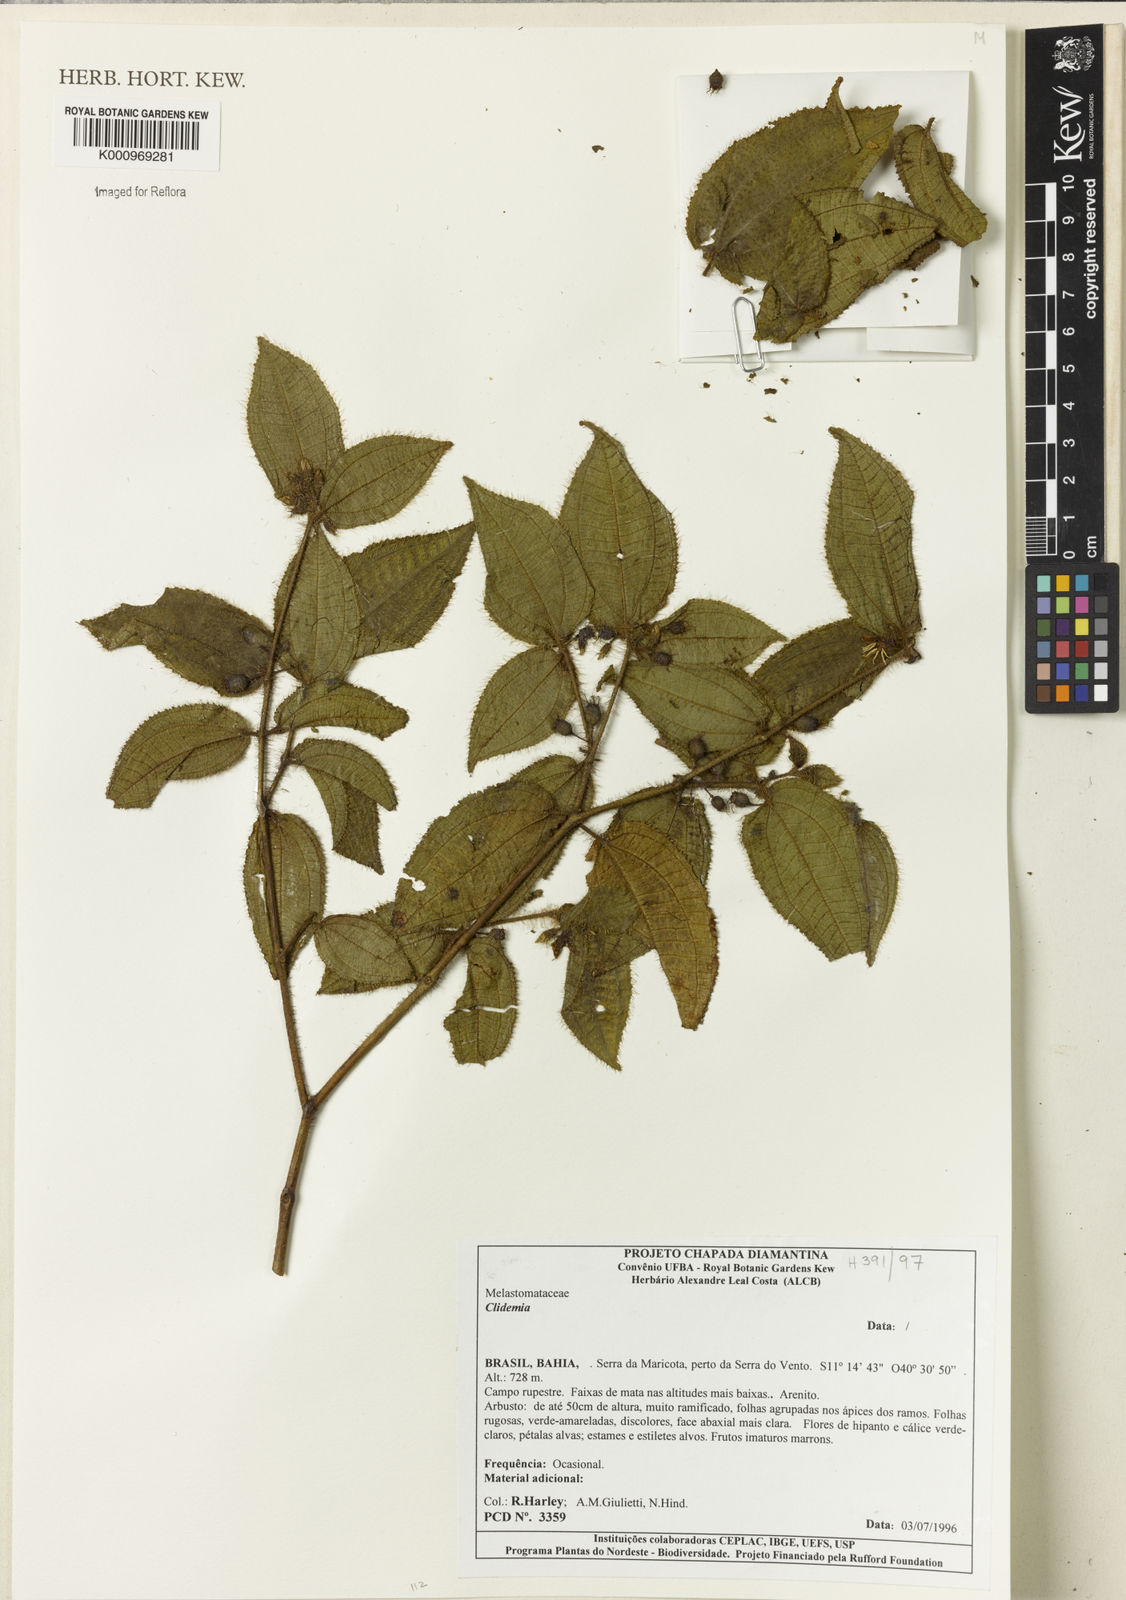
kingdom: Plantae
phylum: Tracheophyta
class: Magnoliopsida
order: Myrtales
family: Melastomataceae
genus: Miconia
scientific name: Miconia
